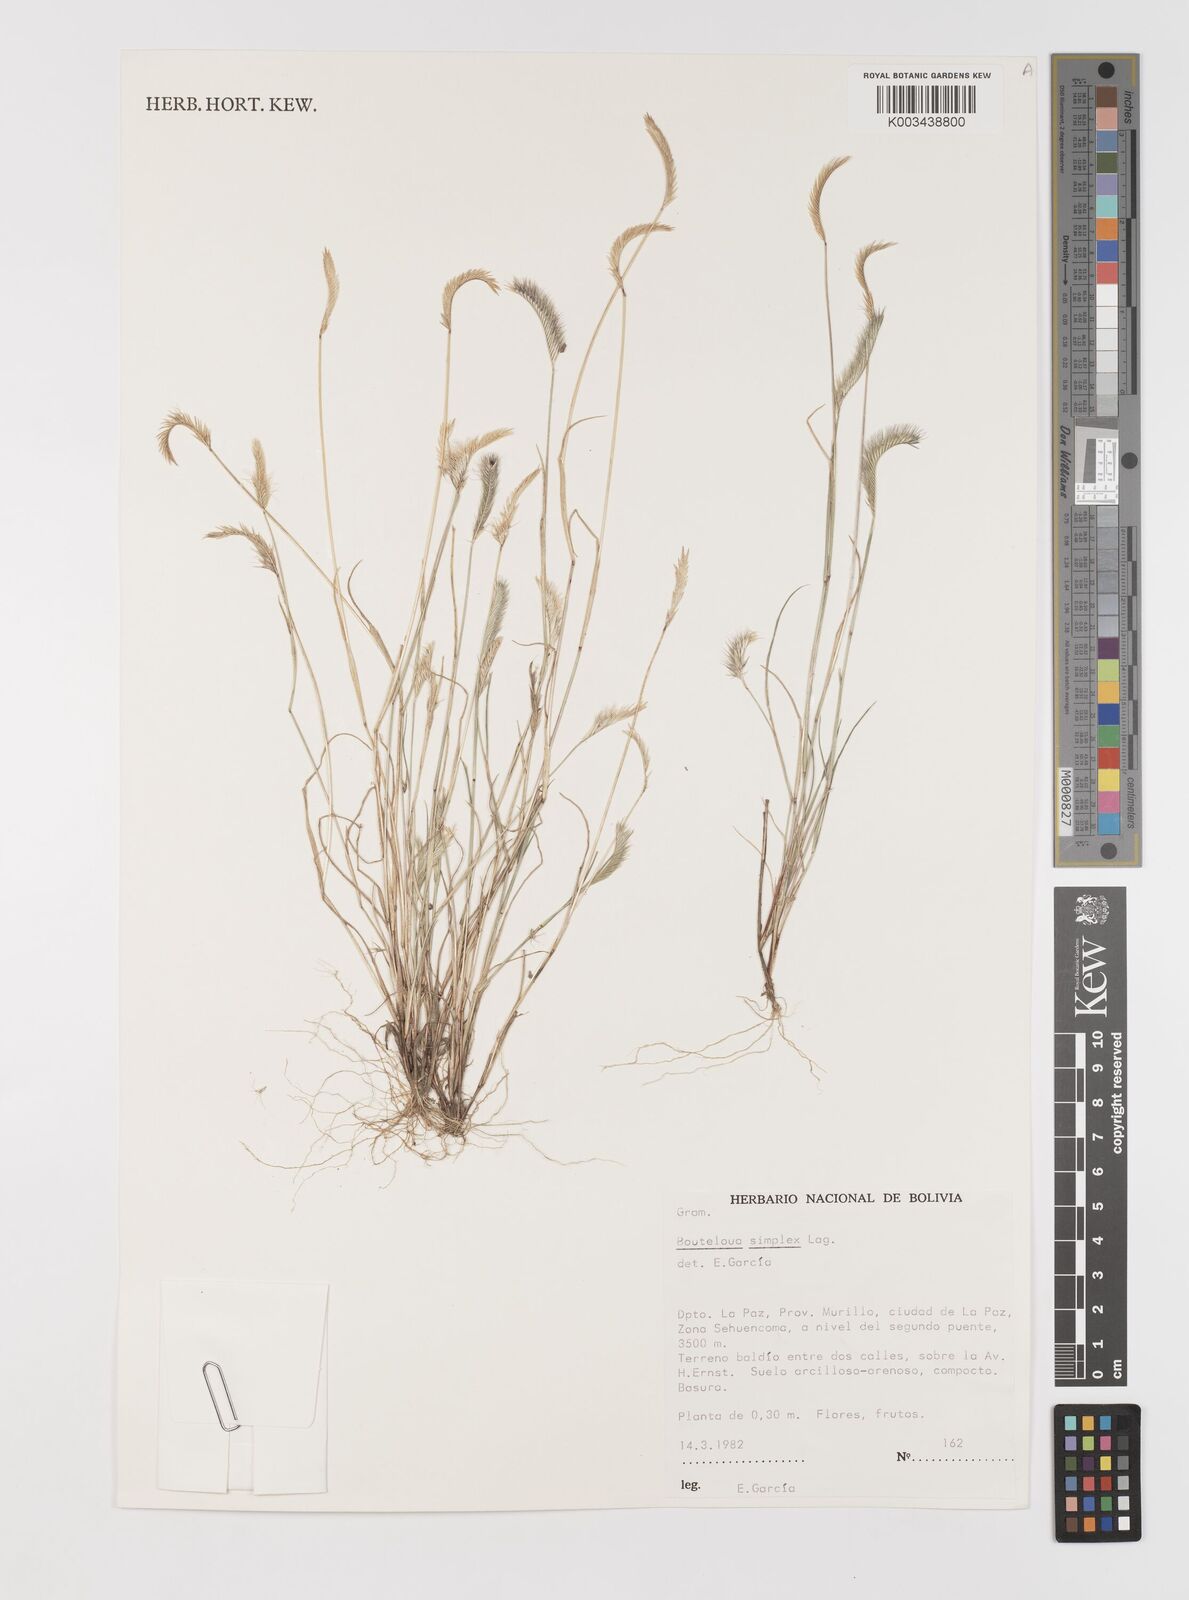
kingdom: Plantae
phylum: Tracheophyta
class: Liliopsida
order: Poales
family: Poaceae
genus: Bouteloua
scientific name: Bouteloua simplex
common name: Mat grama
